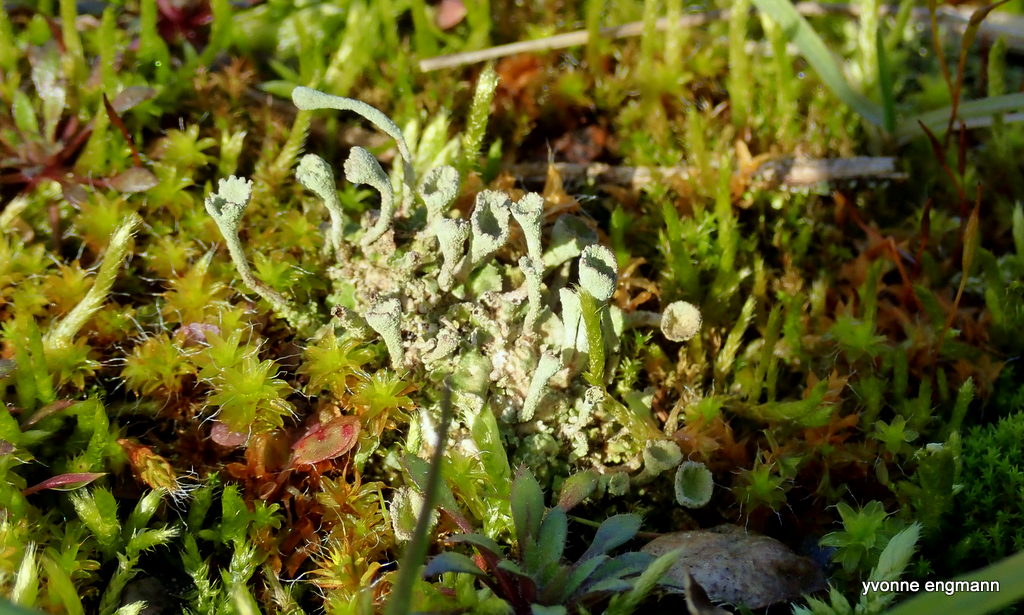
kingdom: Fungi
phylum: Ascomycota
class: Lecanoromycetes
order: Lecanorales
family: Cladoniaceae
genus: Cladonia
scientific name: Cladonia
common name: brungrøn bægerlav
